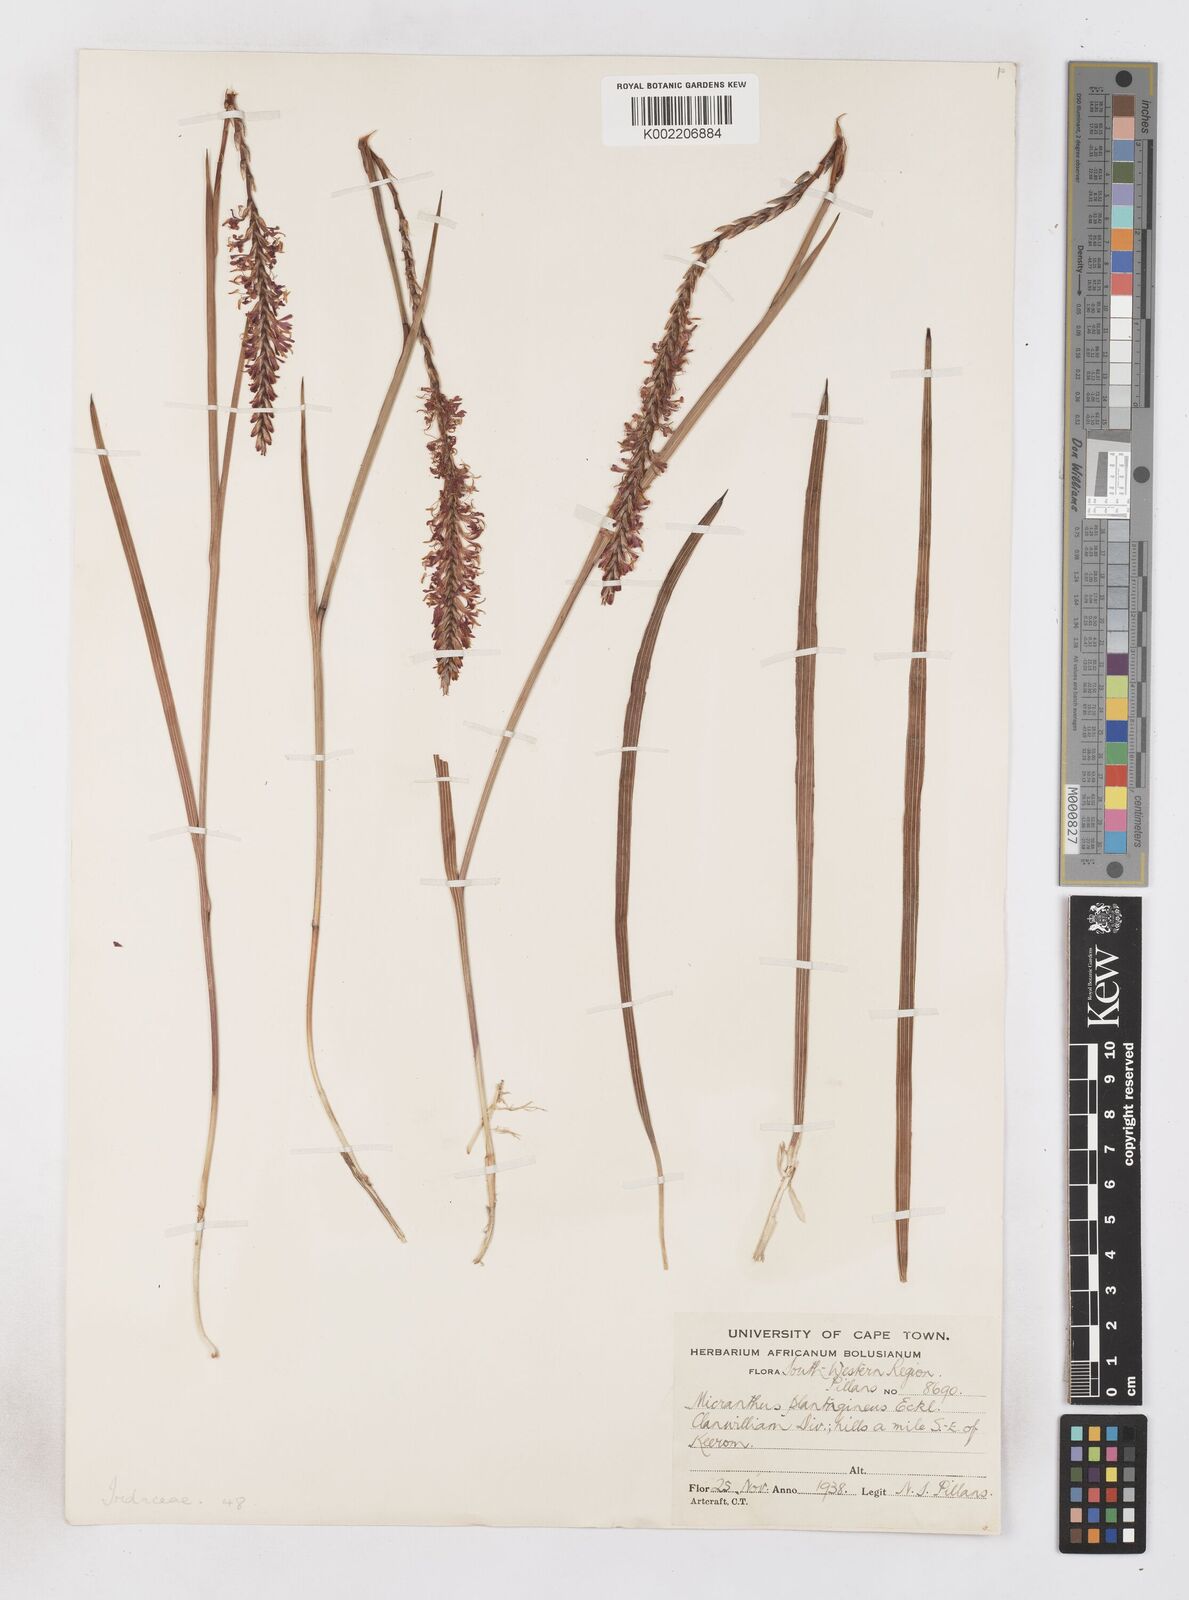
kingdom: Plantae
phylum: Tracheophyta
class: Liliopsida
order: Asparagales
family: Iridaceae
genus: Micranthus
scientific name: Micranthus plantagineus
